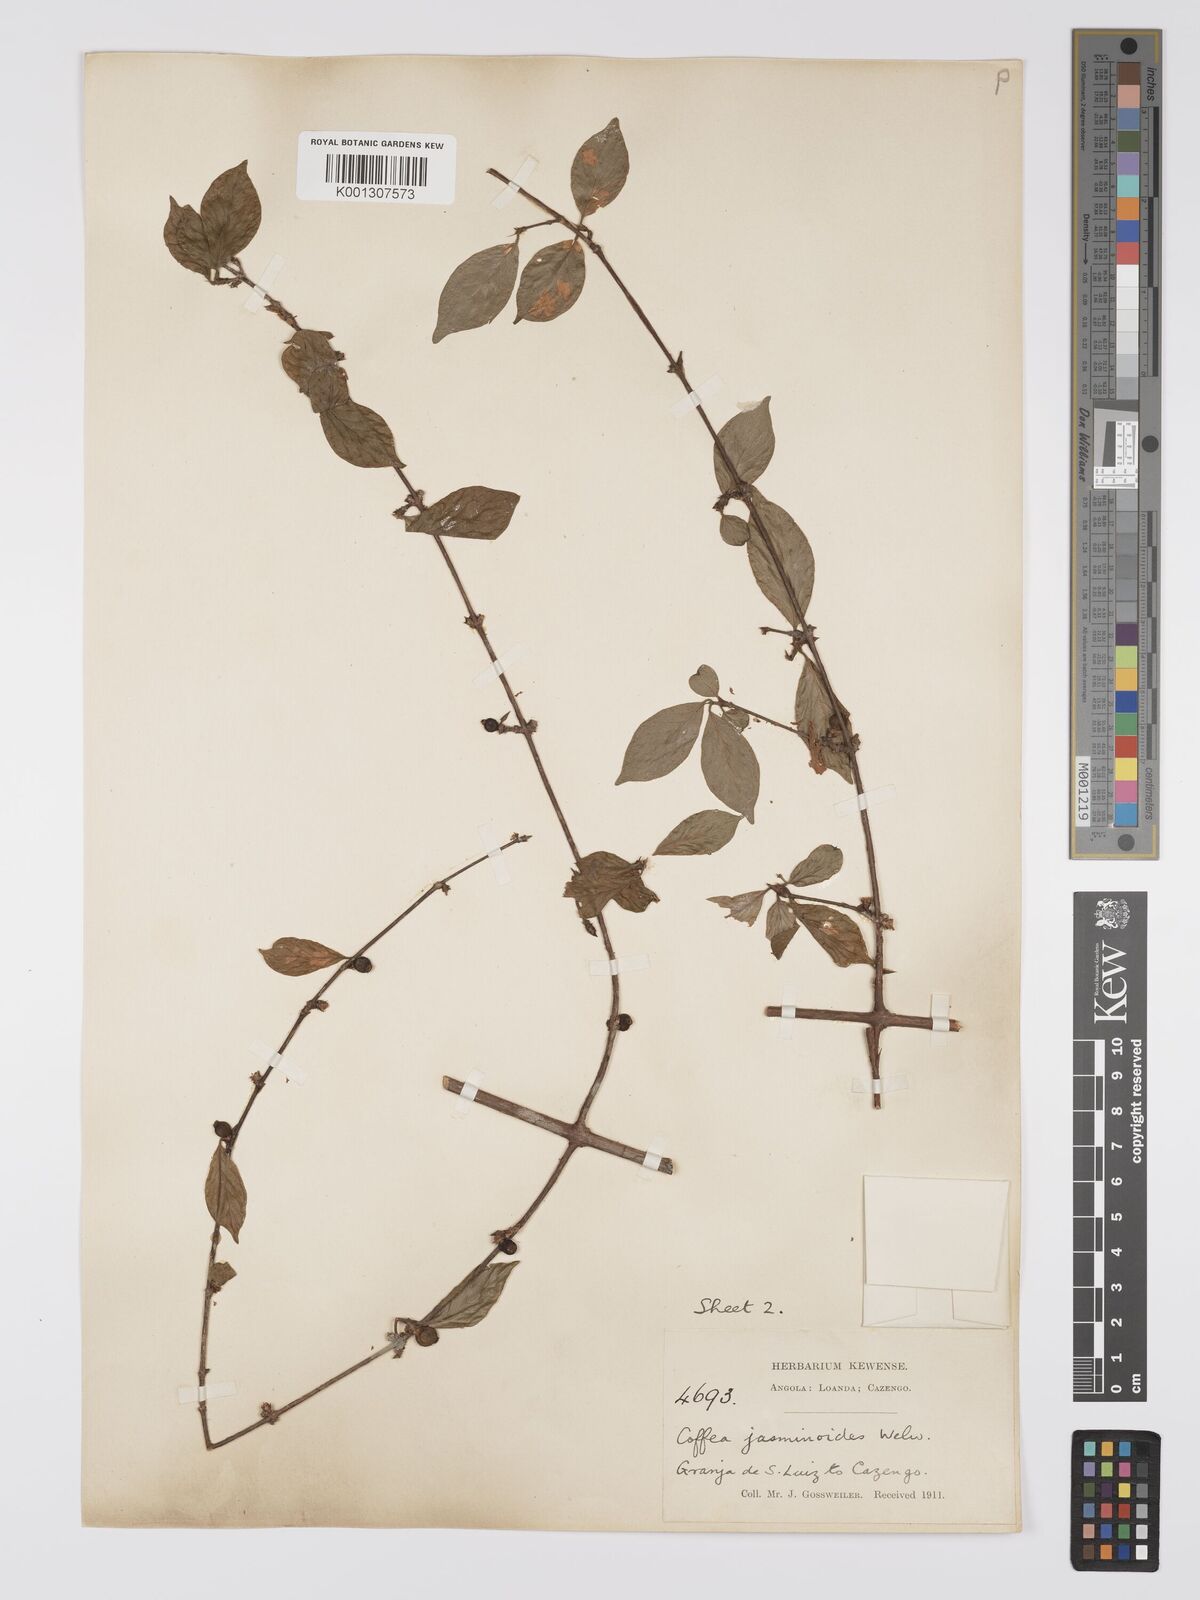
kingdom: Plantae
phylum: Tracheophyta
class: Magnoliopsida
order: Gentianales
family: Rubiaceae
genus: Argocoffeopsis
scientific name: Argocoffeopsis eketensis
